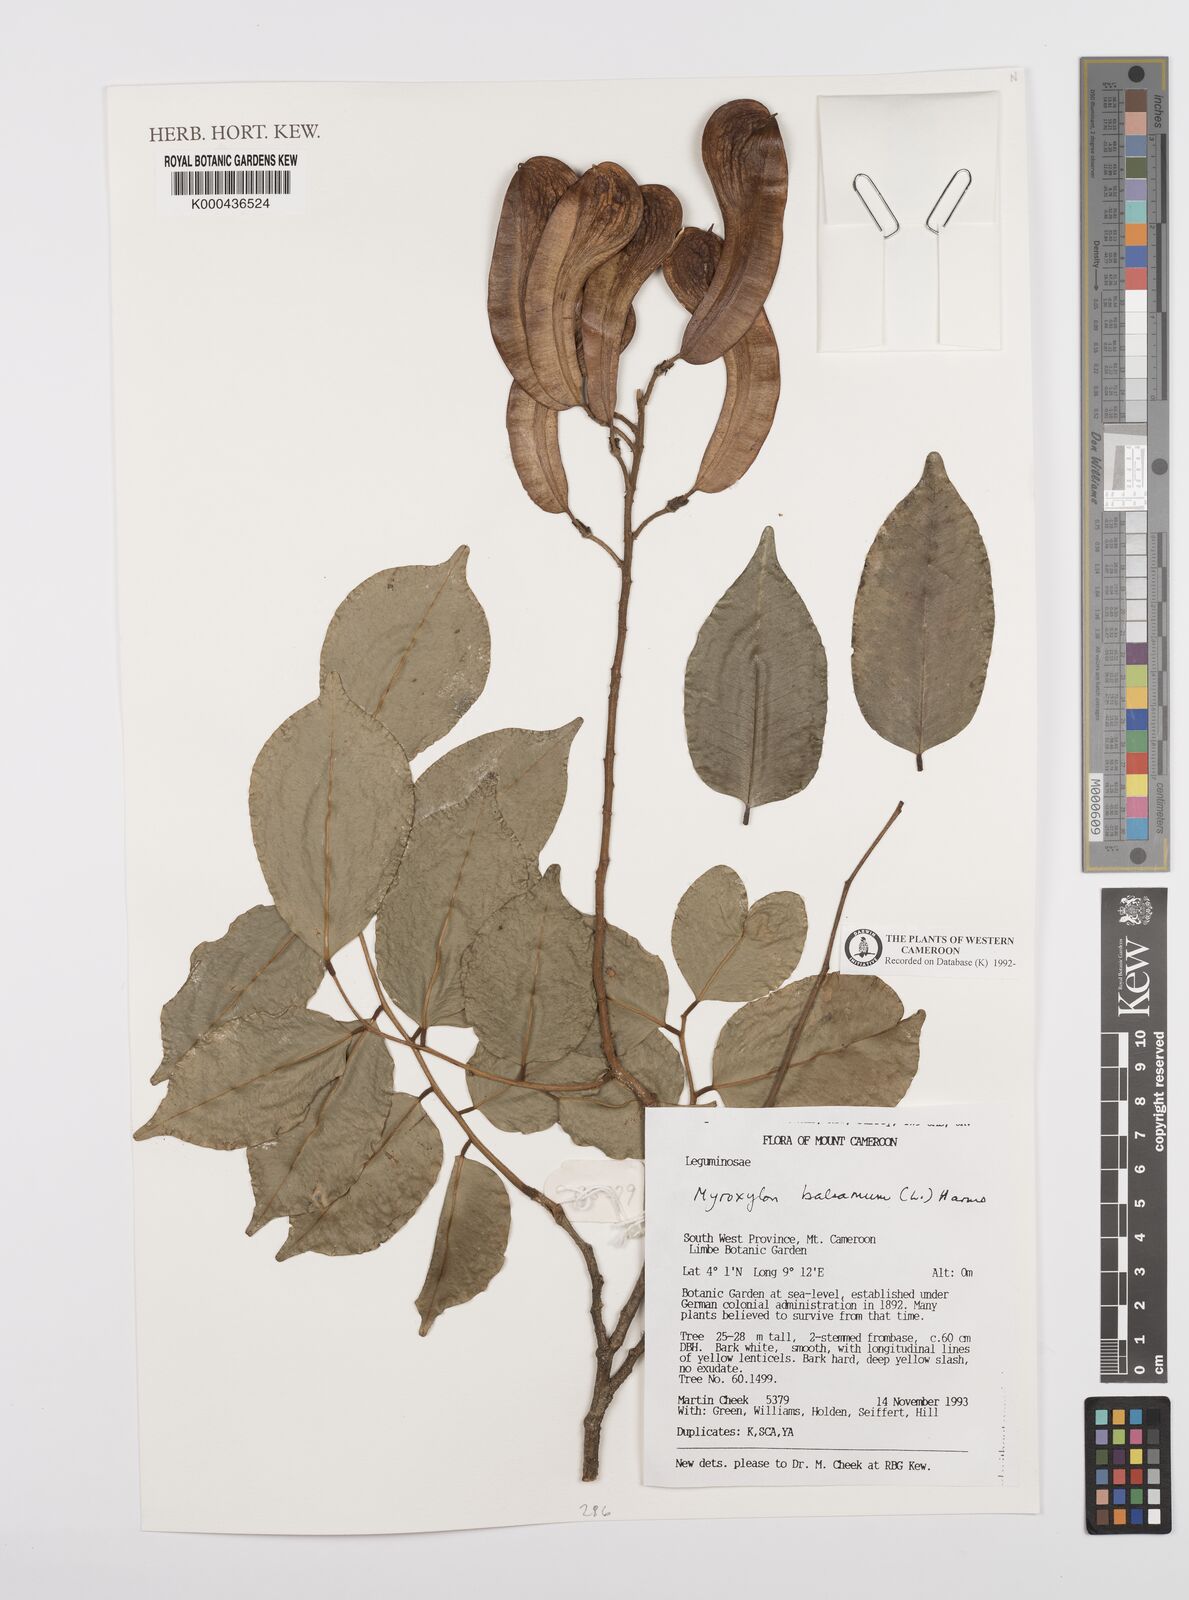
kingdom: Plantae
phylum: Tracheophyta
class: Magnoliopsida
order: Fabales
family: Fabaceae
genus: Myroxylon
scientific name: Myroxylon balsamum
